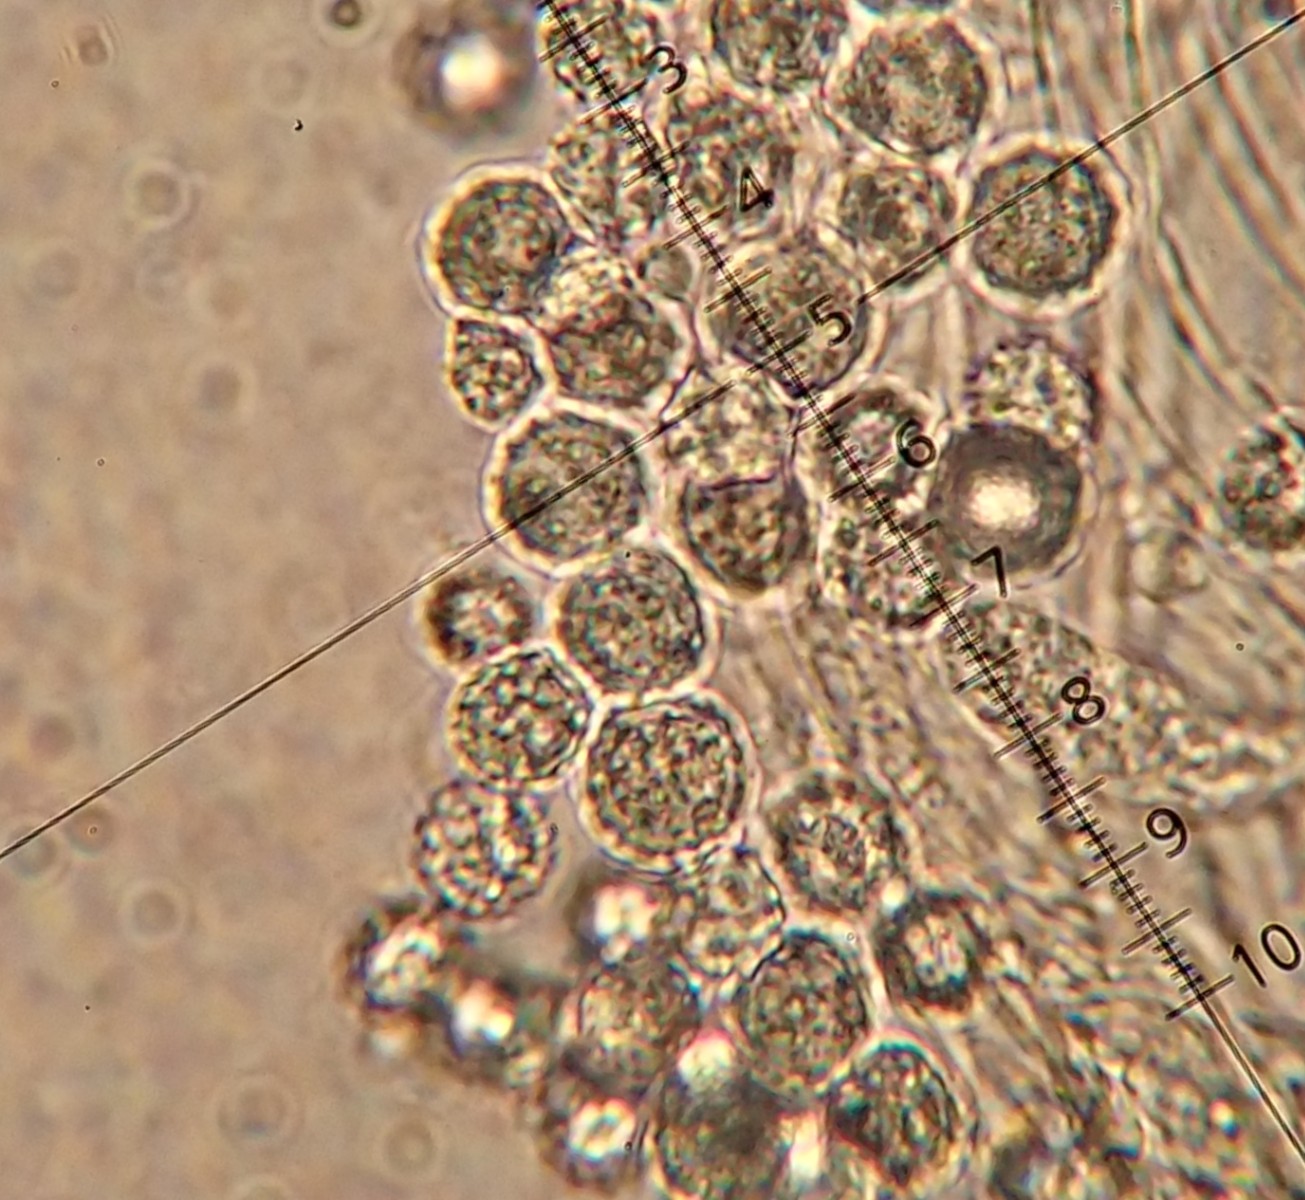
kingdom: Fungi
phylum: Basidiomycota
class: Agaricomycetes
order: Agaricales
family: Hydnangiaceae
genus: Laccaria
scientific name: Laccaria laccata
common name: rød ametysthat
